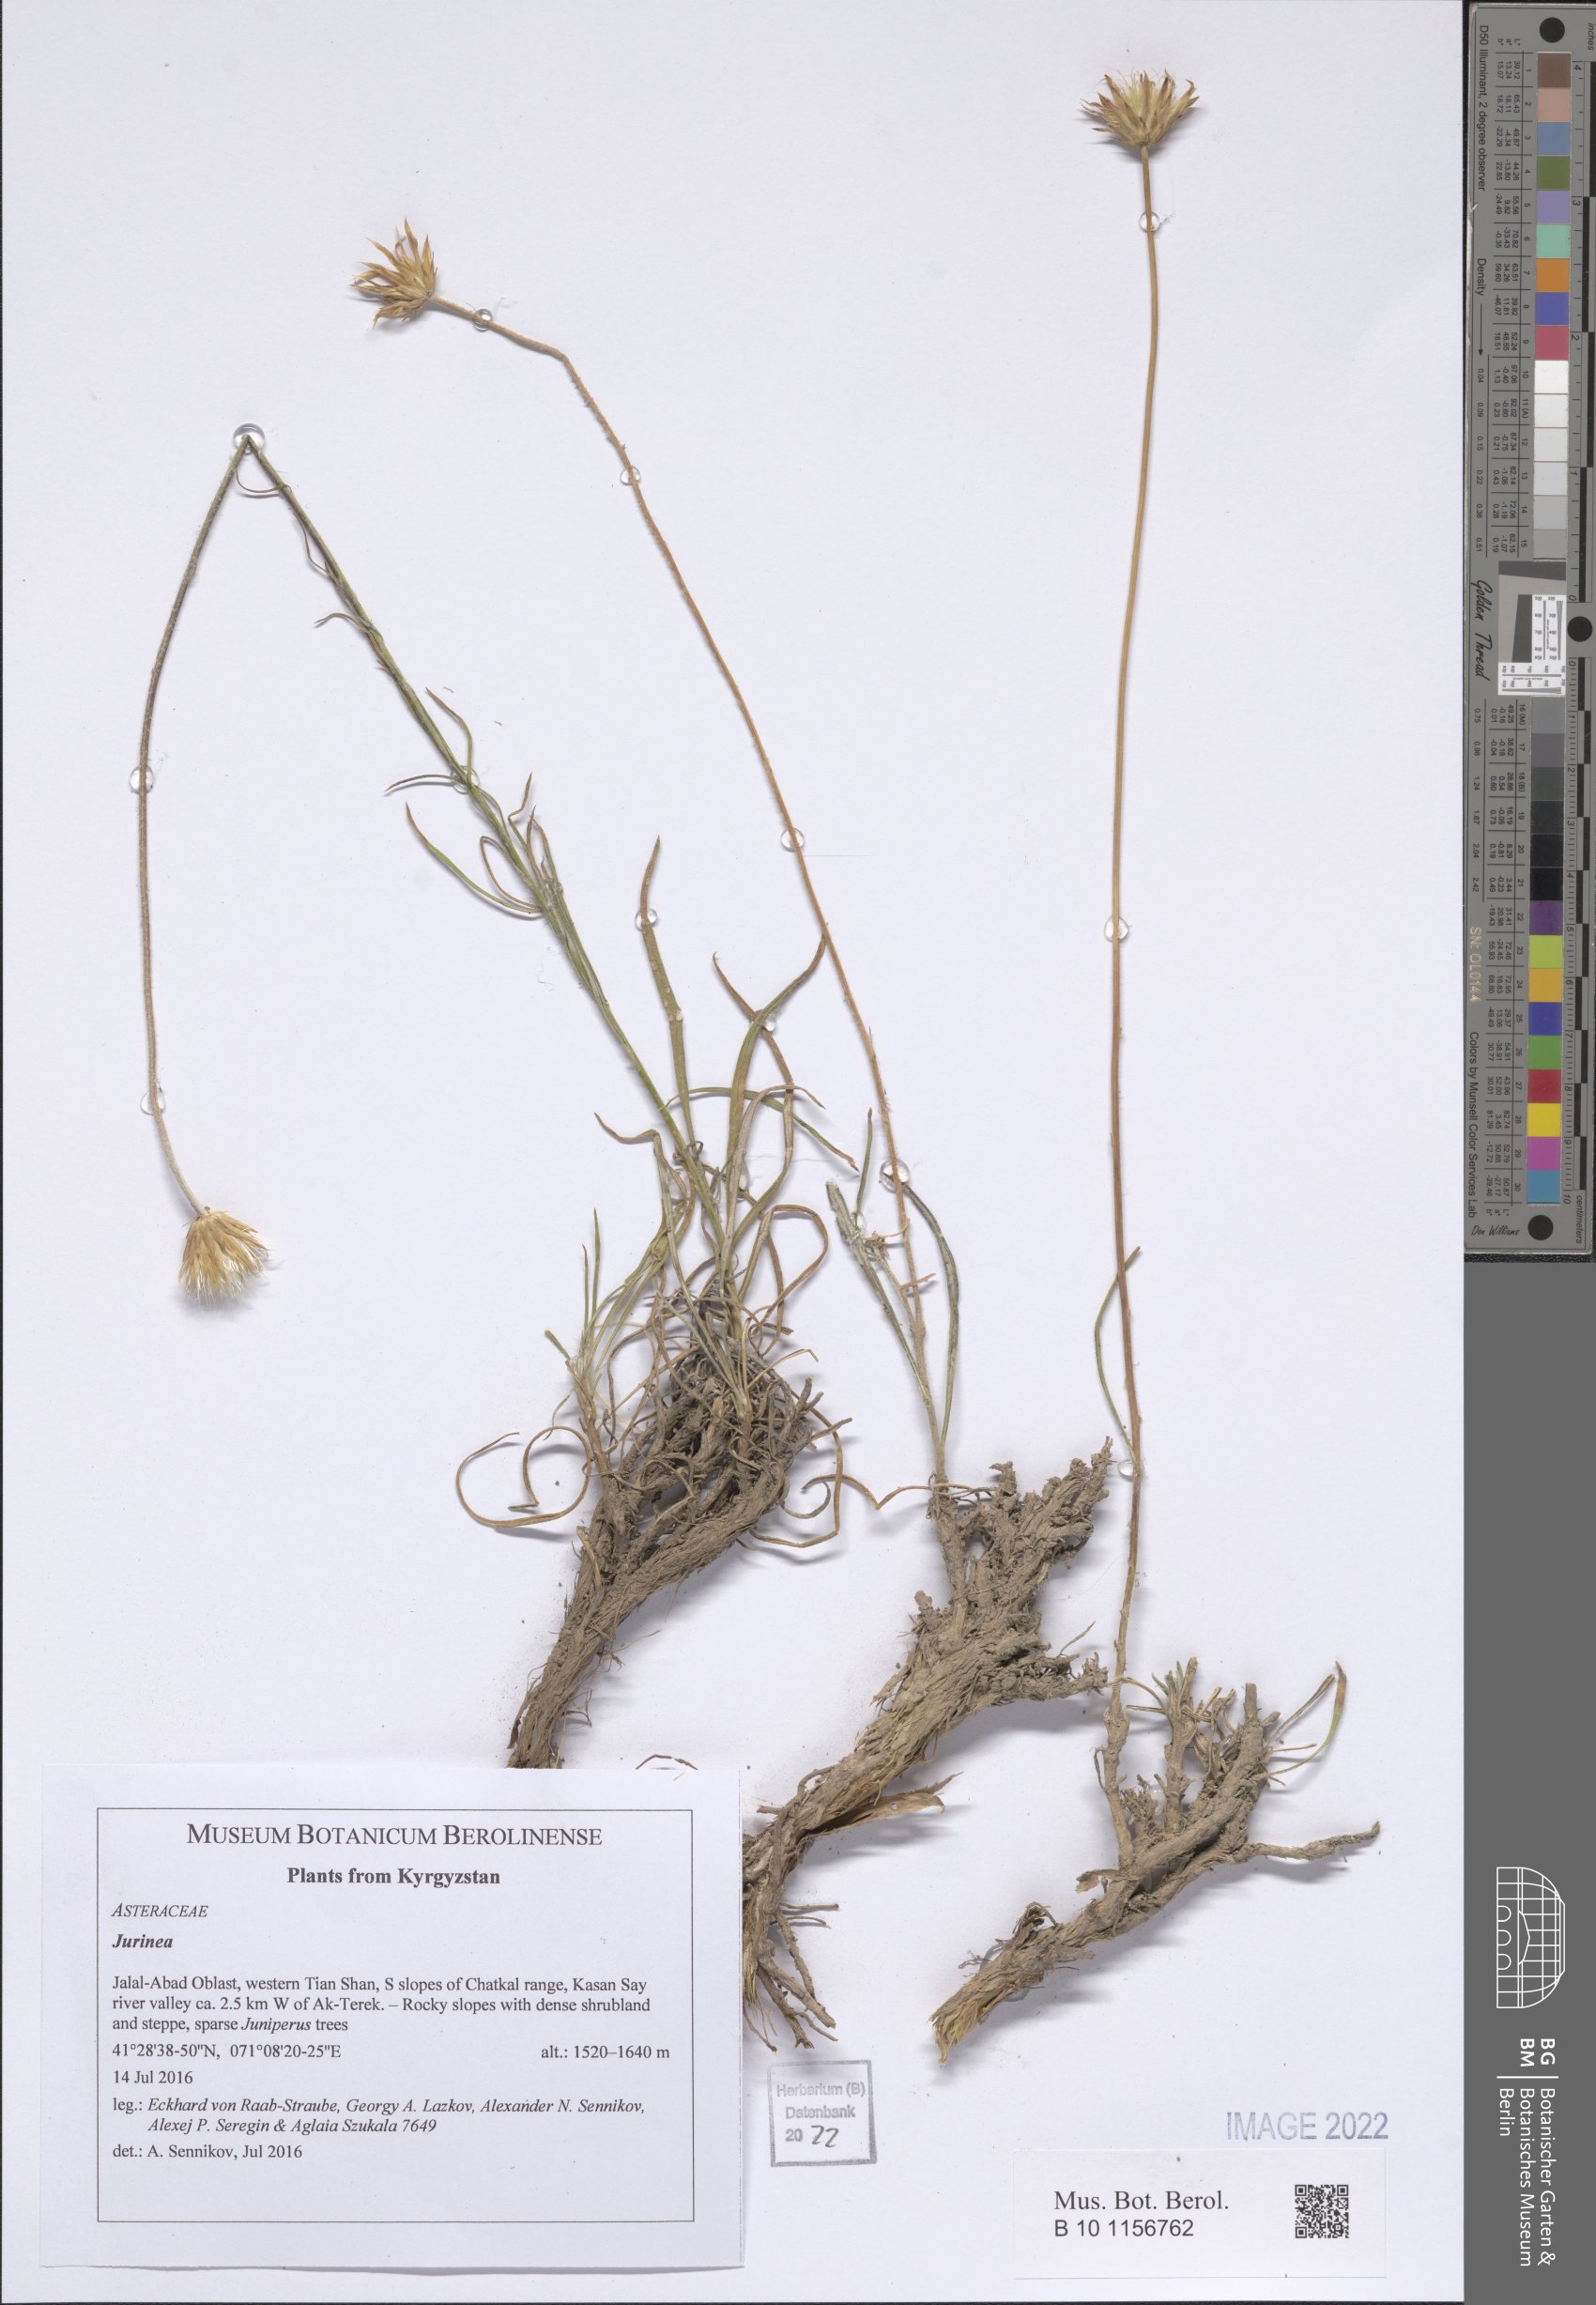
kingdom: Plantae
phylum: Tracheophyta
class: Magnoliopsida
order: Asterales
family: Asteraceae
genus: Jurinea
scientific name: Jurinea
